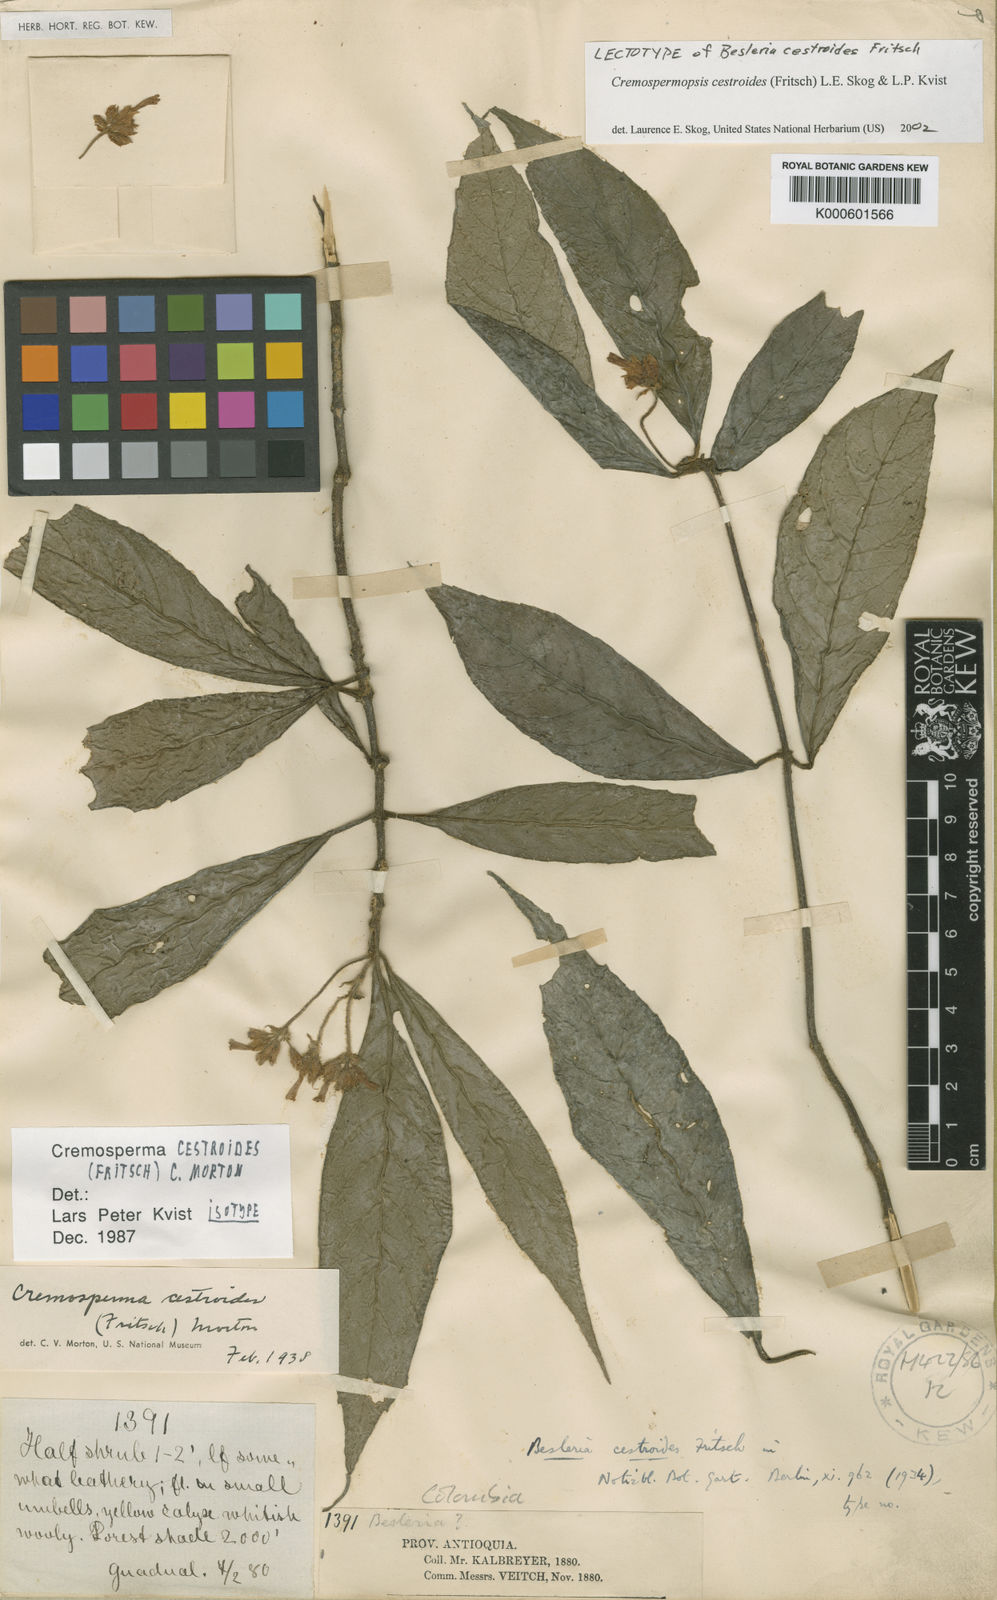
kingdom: Plantae
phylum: Tracheophyta
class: Magnoliopsida
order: Lamiales
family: Gesneriaceae
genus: Cremospermopsis
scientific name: Cremospermopsis cestroides
